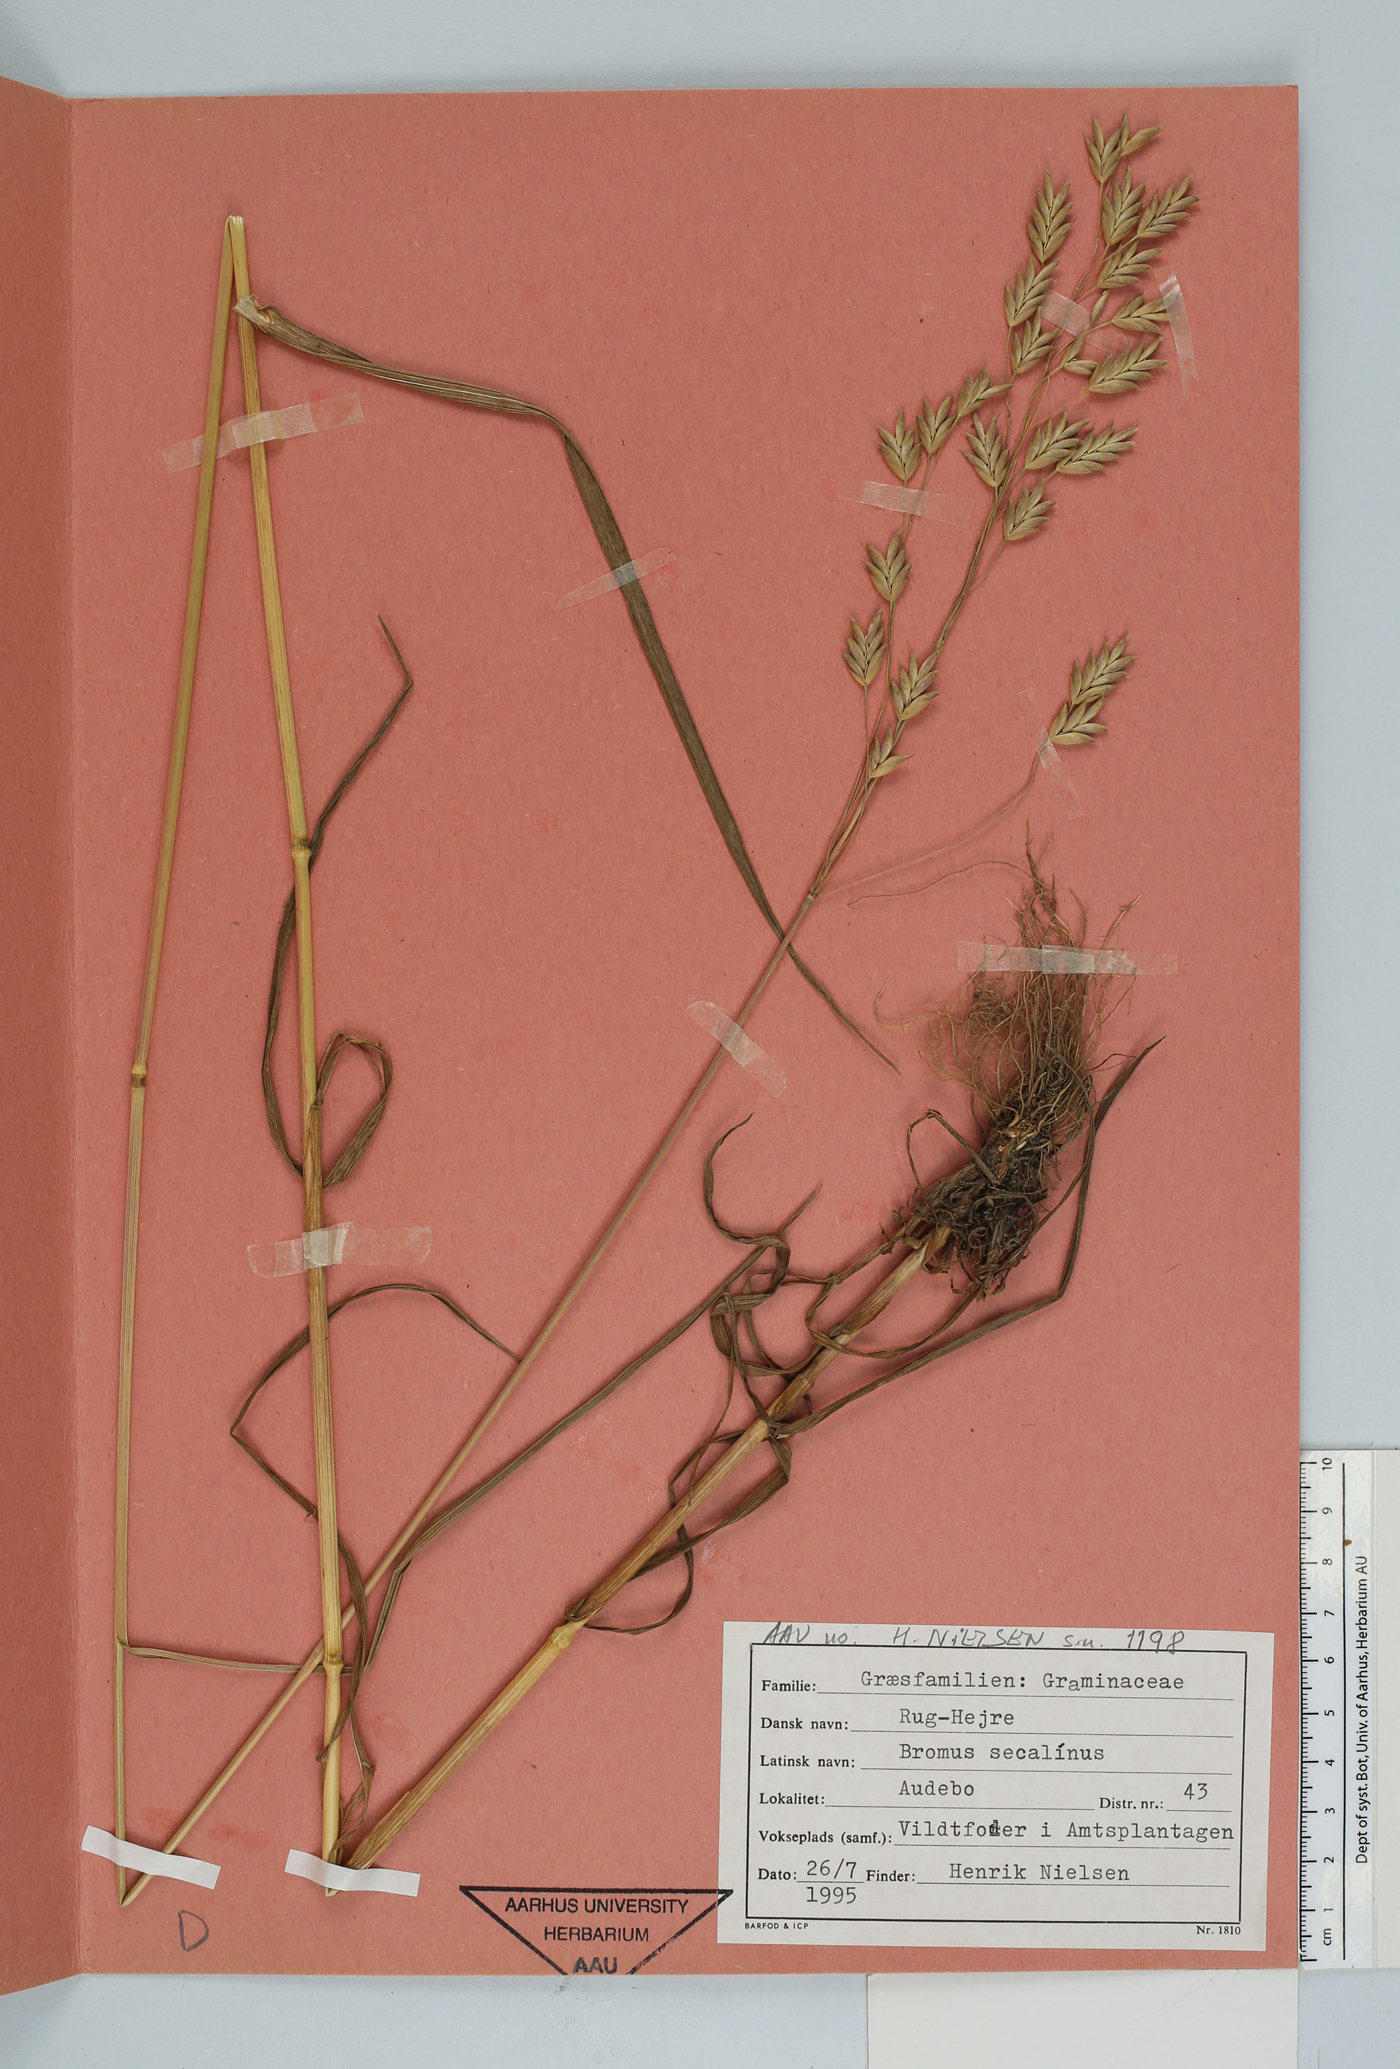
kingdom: Plantae
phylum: Tracheophyta
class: Liliopsida
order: Poales
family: Poaceae
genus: Bromus
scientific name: Bromus secalinus
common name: Rye brome
